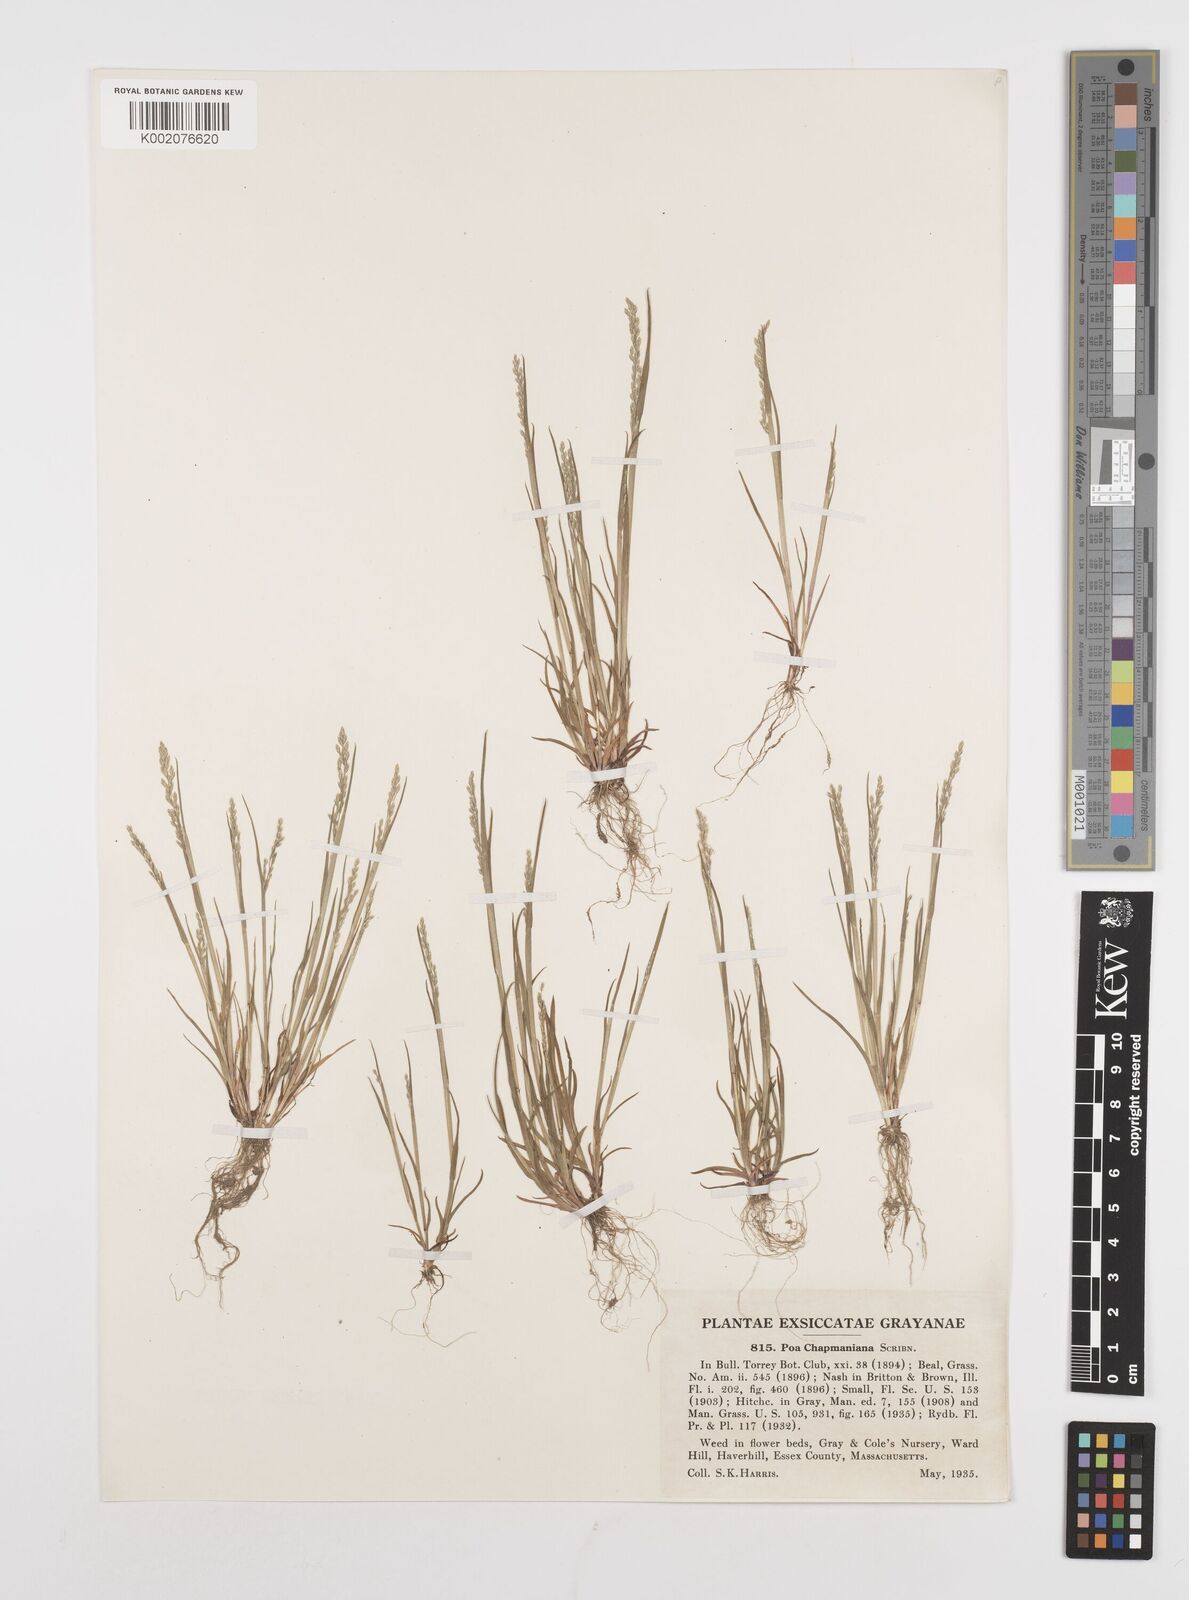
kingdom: Plantae
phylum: Tracheophyta
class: Liliopsida
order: Poales
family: Poaceae
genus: Poa
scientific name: Poa chapmaniana
